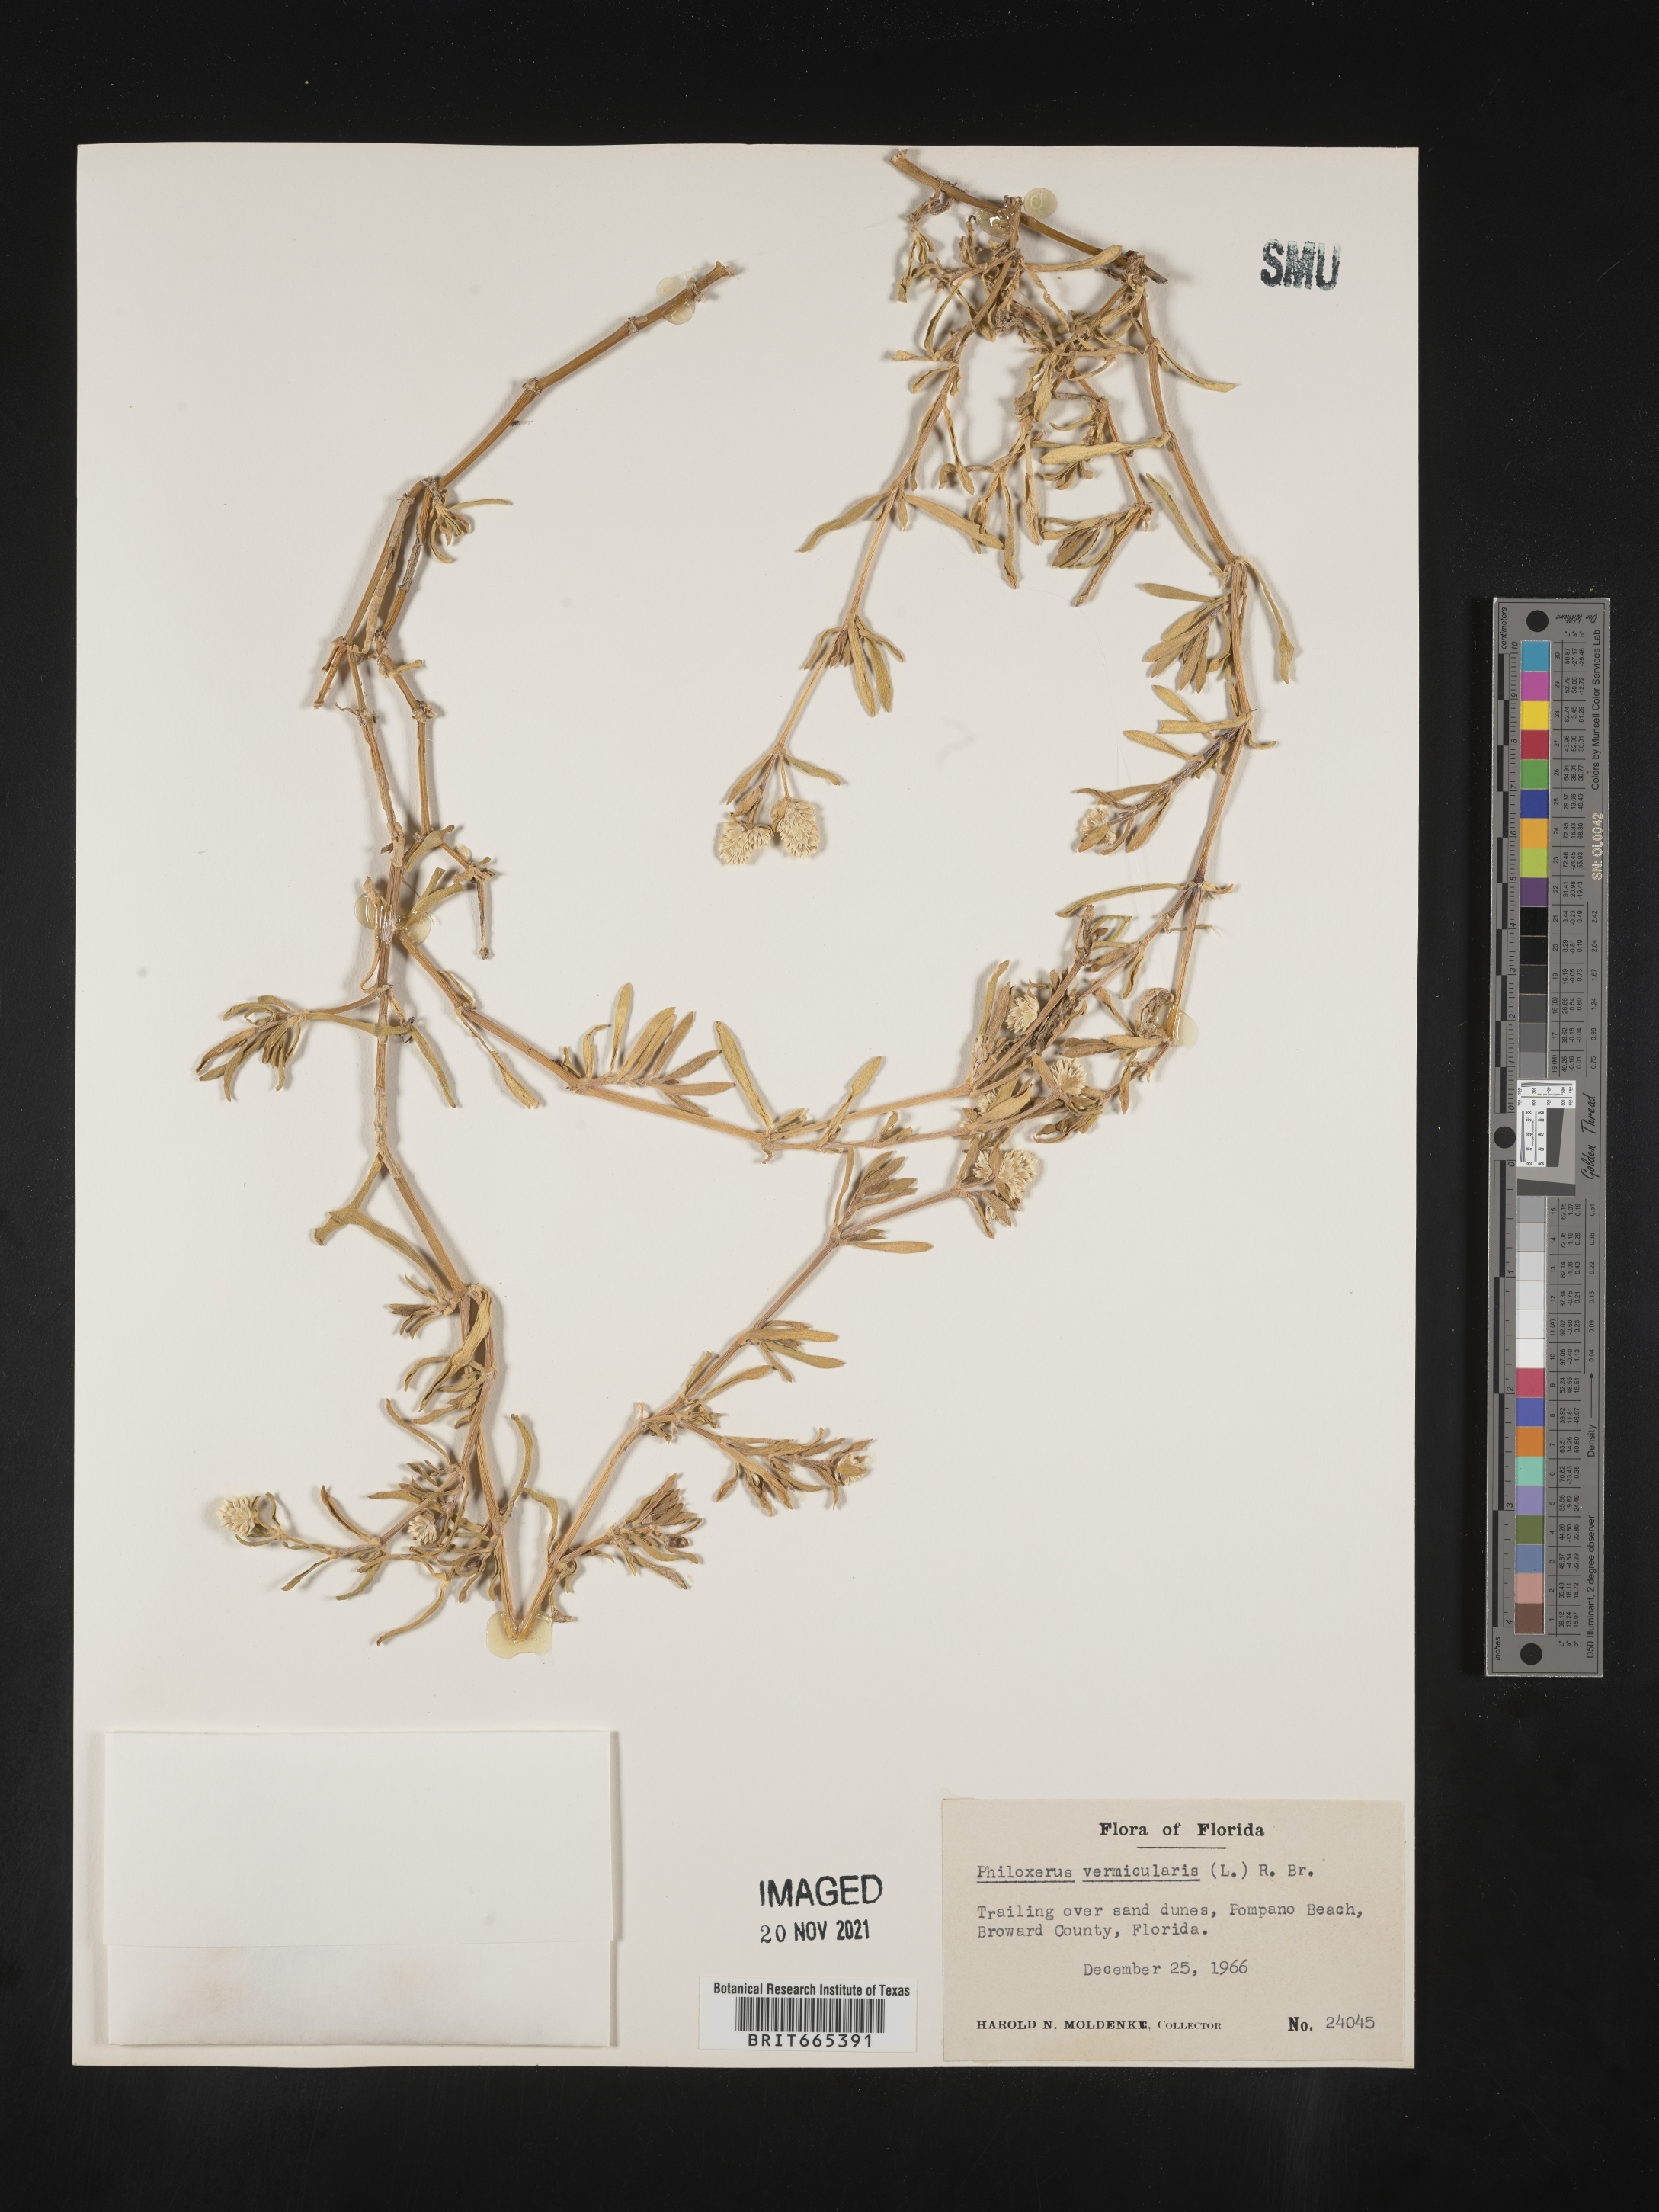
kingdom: Plantae
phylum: Tracheophyta
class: Magnoliopsida
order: Caryophyllales
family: Amaranthaceae
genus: Gomphrena
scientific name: Gomphrena
